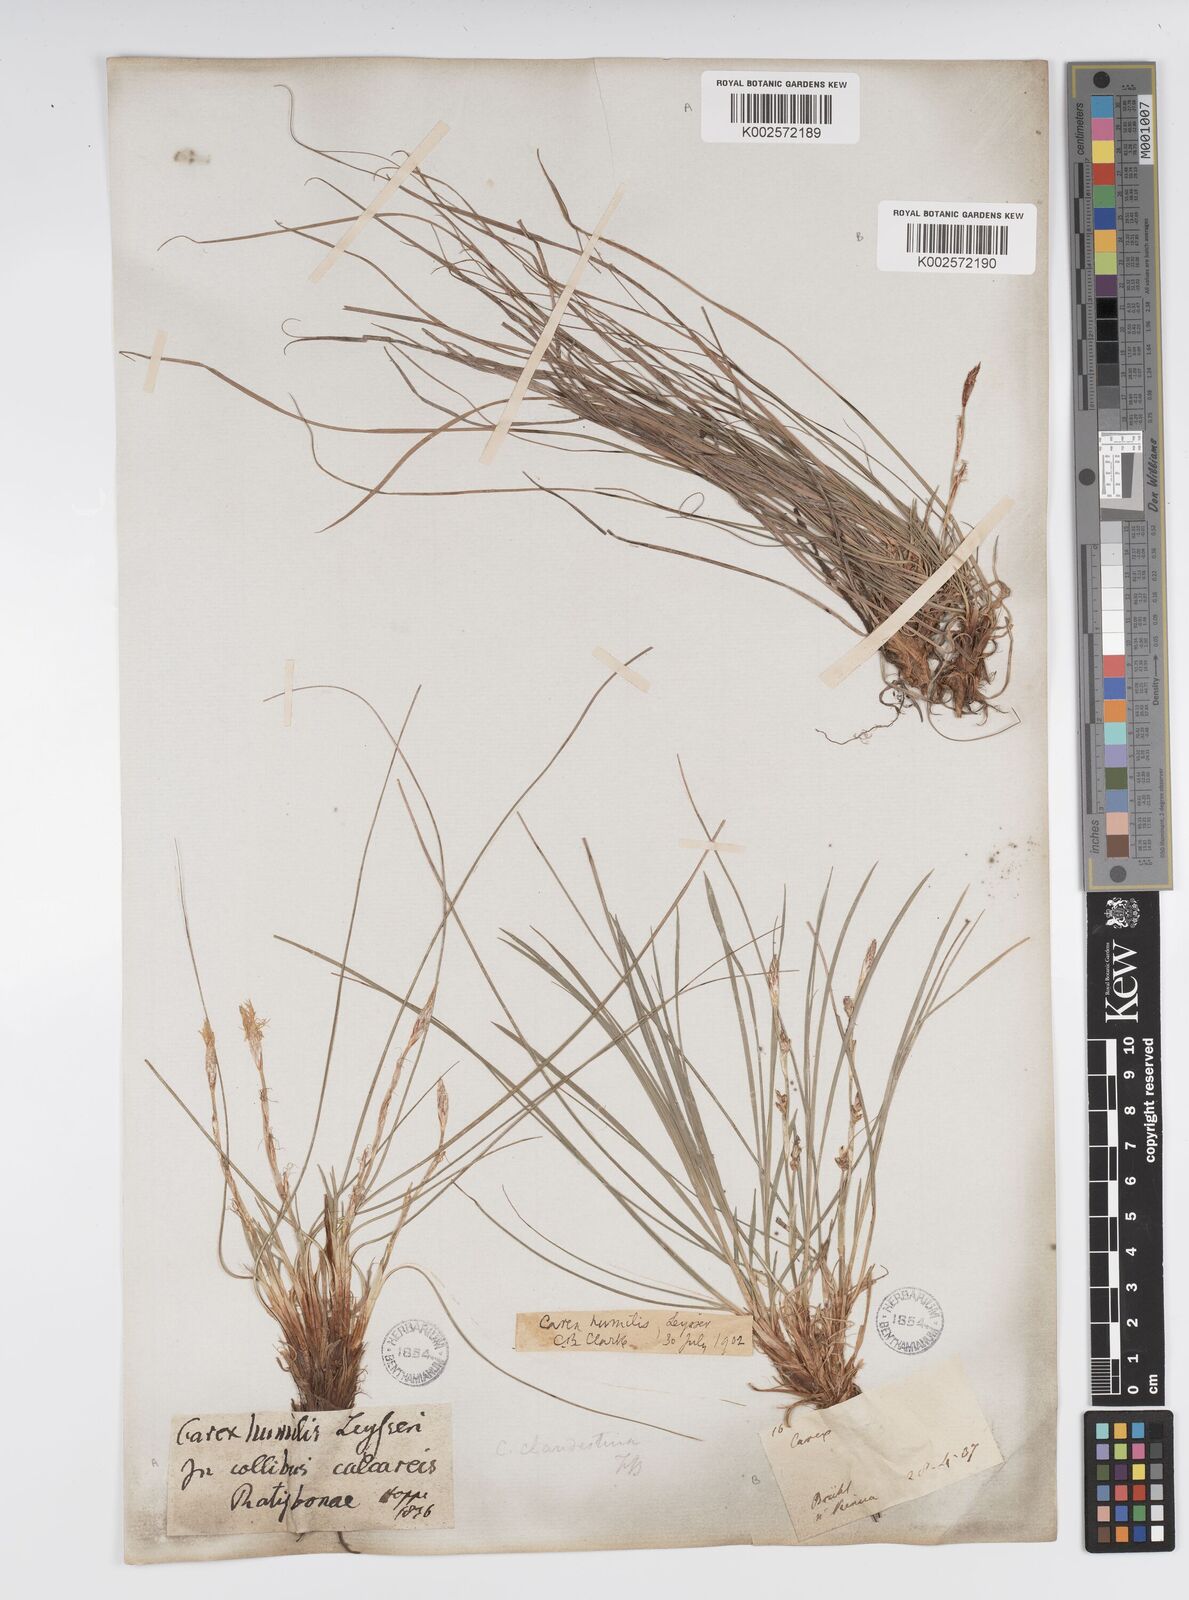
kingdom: Plantae
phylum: Tracheophyta
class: Liliopsida
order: Poales
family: Cyperaceae
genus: Carex
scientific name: Carex humilis
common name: Dwarf sedge
